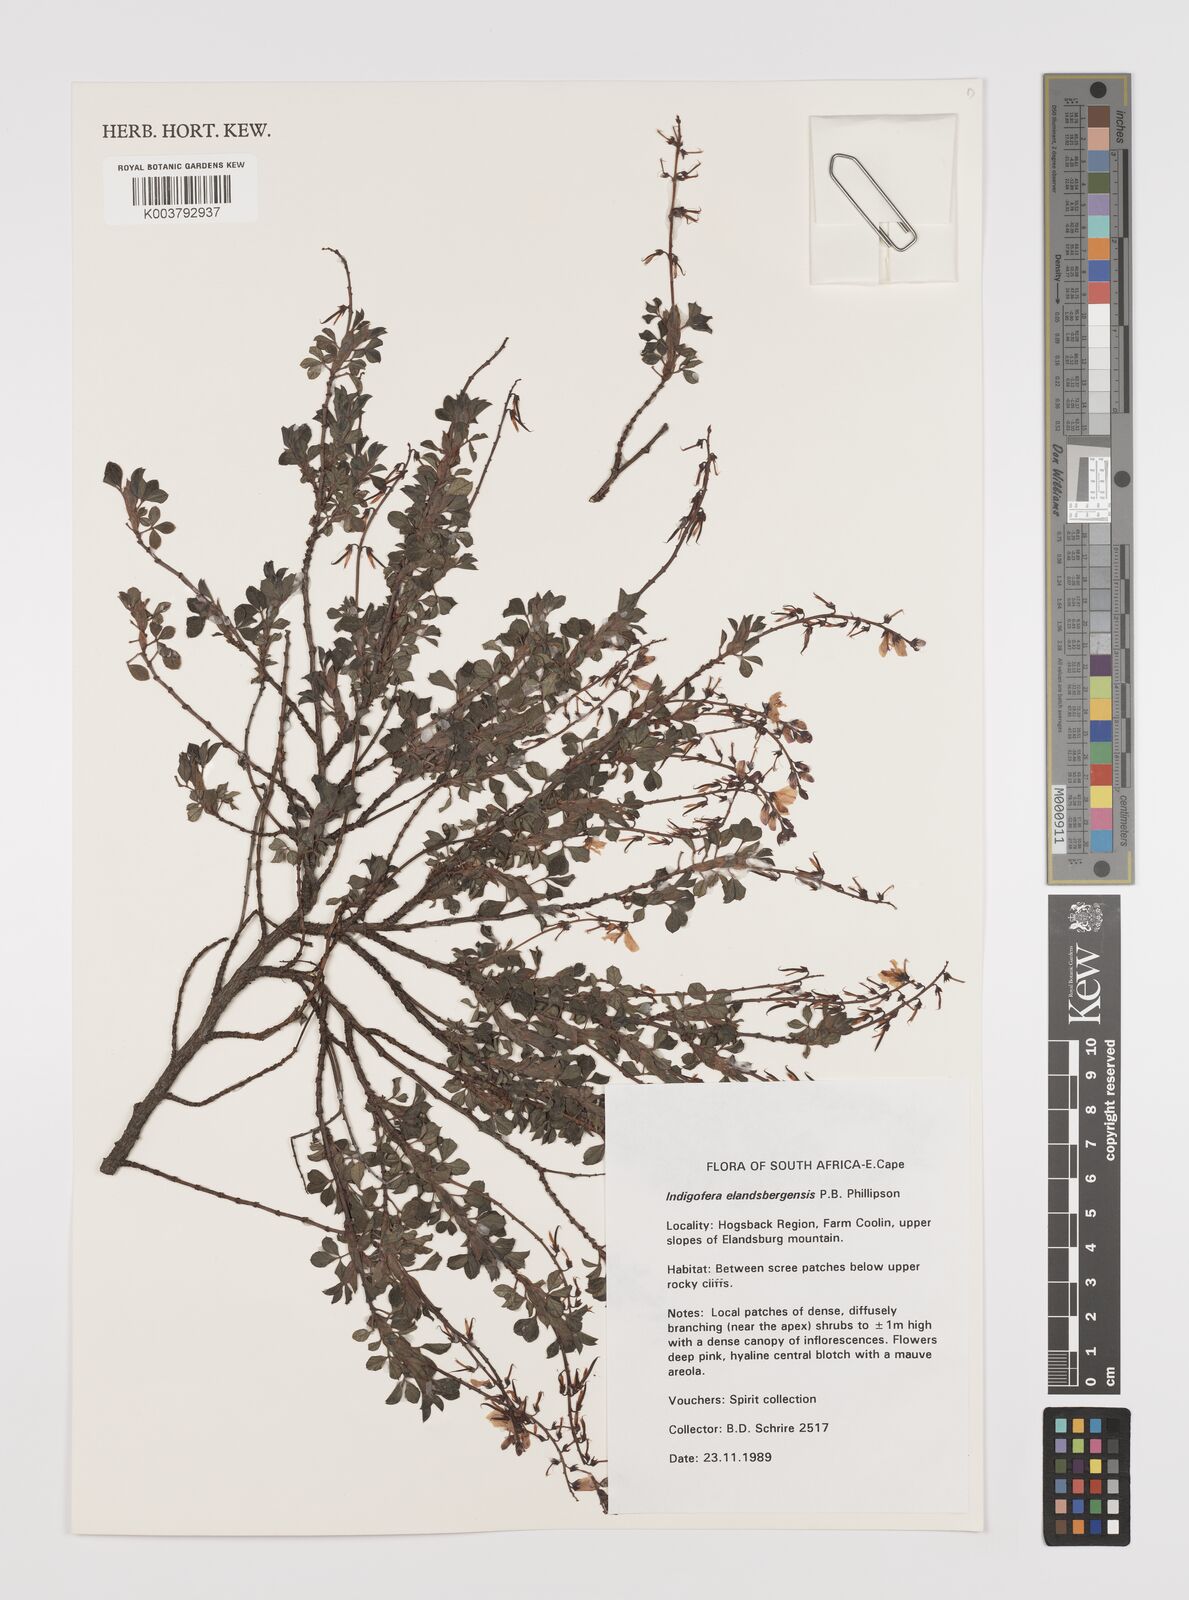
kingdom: Plantae
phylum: Tracheophyta
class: Magnoliopsida
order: Fabales
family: Fabaceae
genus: Indigofera
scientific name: Indigofera elandsbergensis
